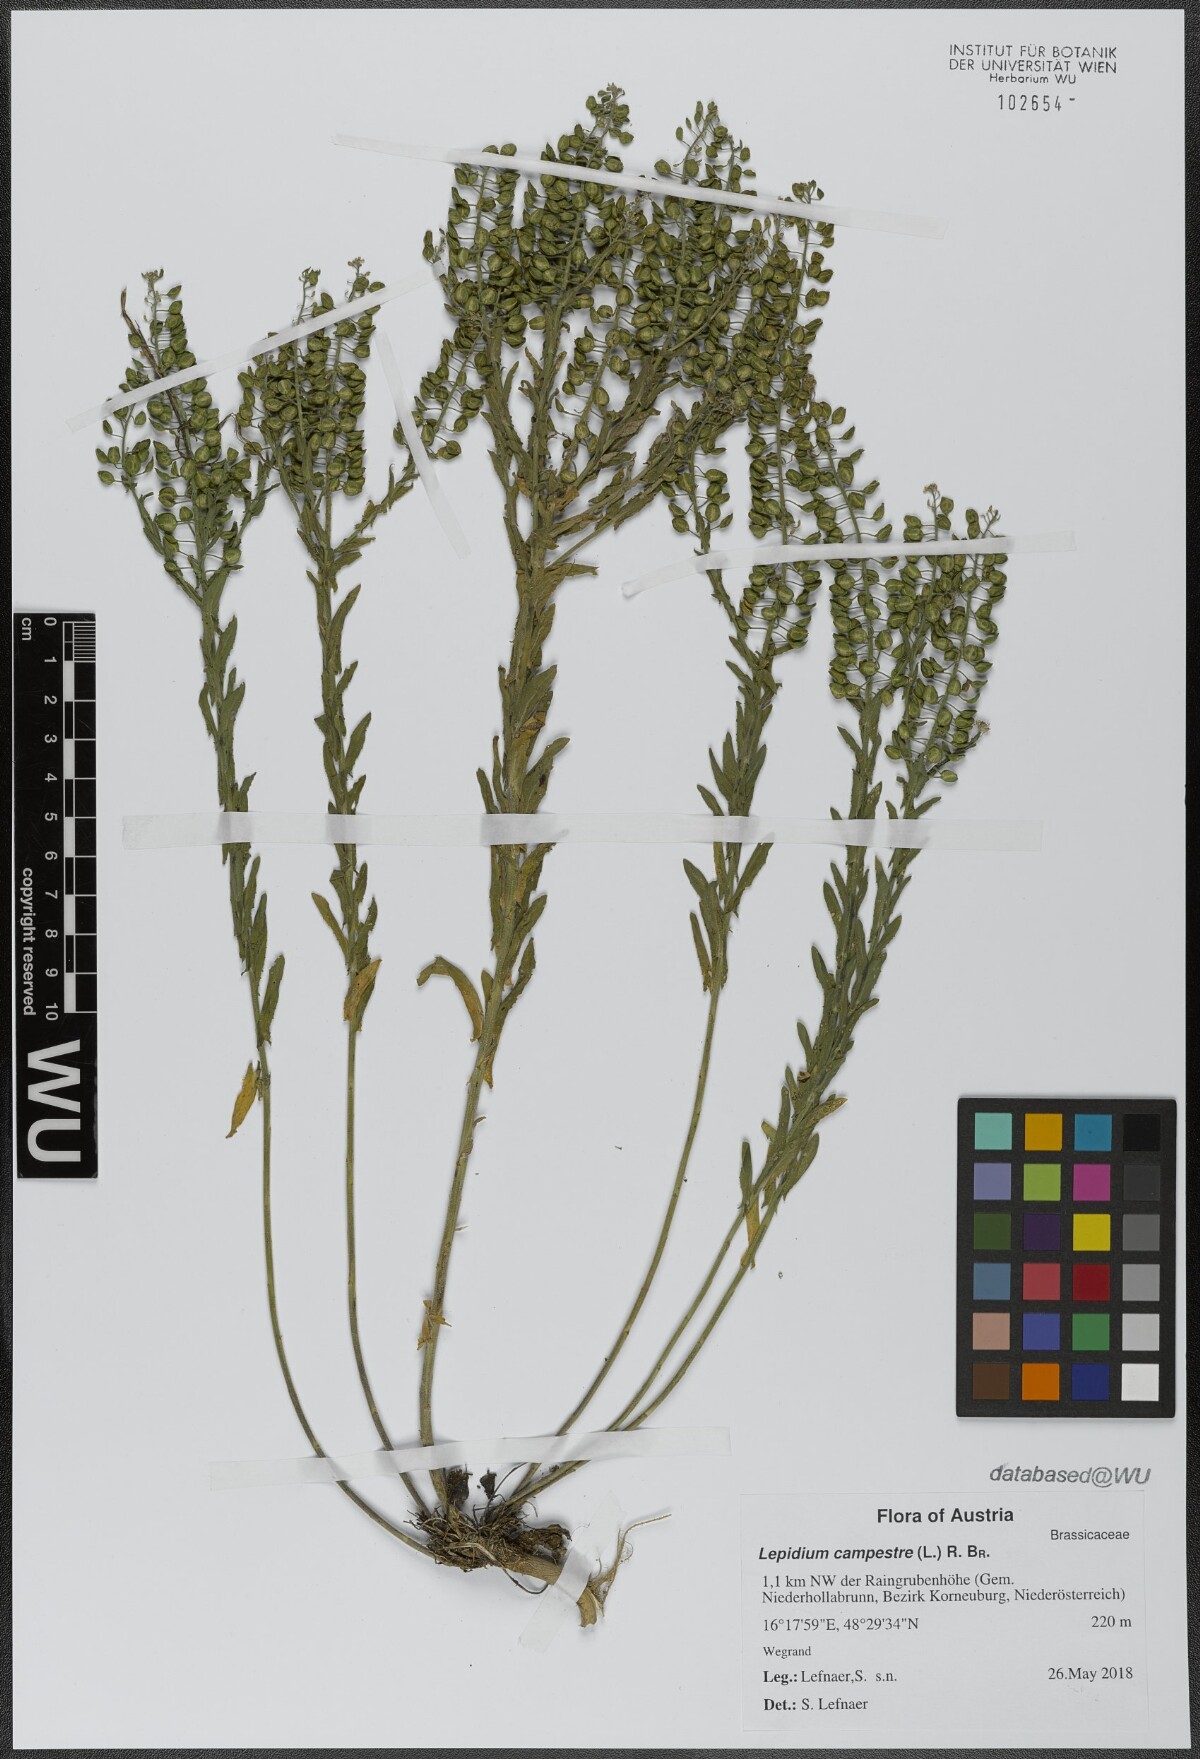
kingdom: Plantae
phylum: Tracheophyta
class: Magnoliopsida
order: Brassicales
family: Brassicaceae
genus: Lepidium
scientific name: Lepidium campestre
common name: Field pepperwort
